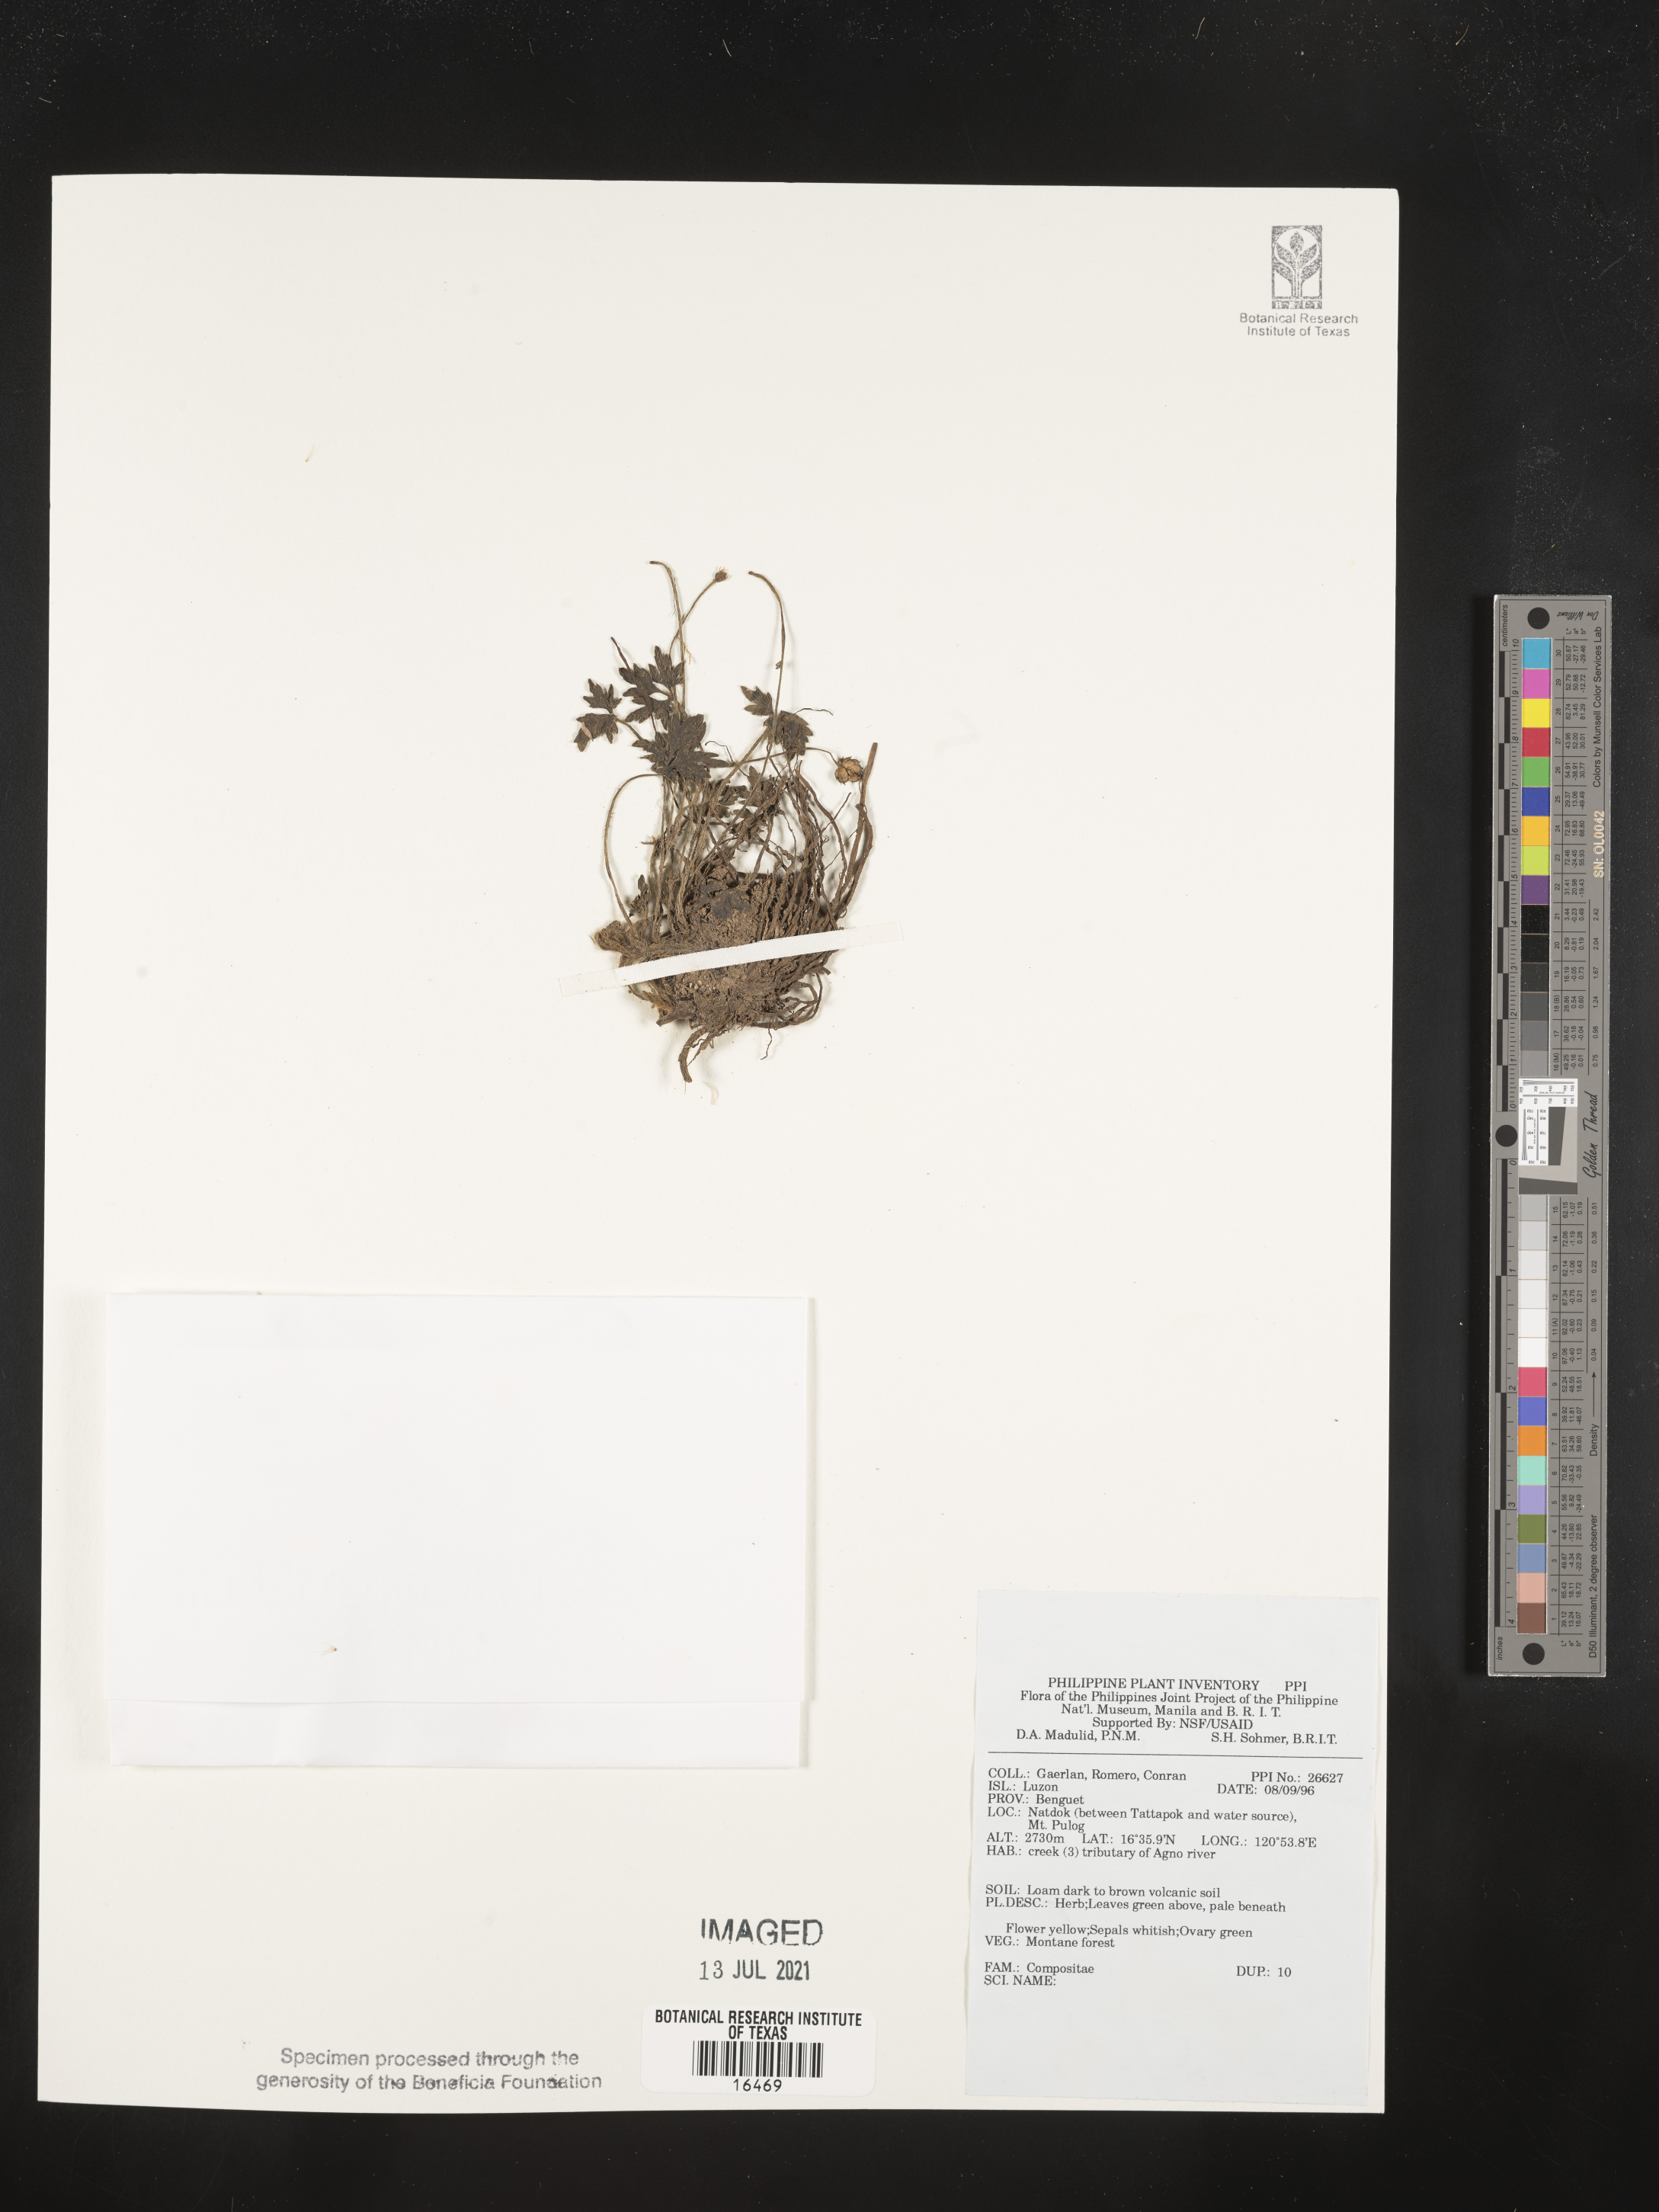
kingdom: Plantae
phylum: Tracheophyta
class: Magnoliopsida
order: Asterales
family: Asteraceae
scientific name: Asteraceae
